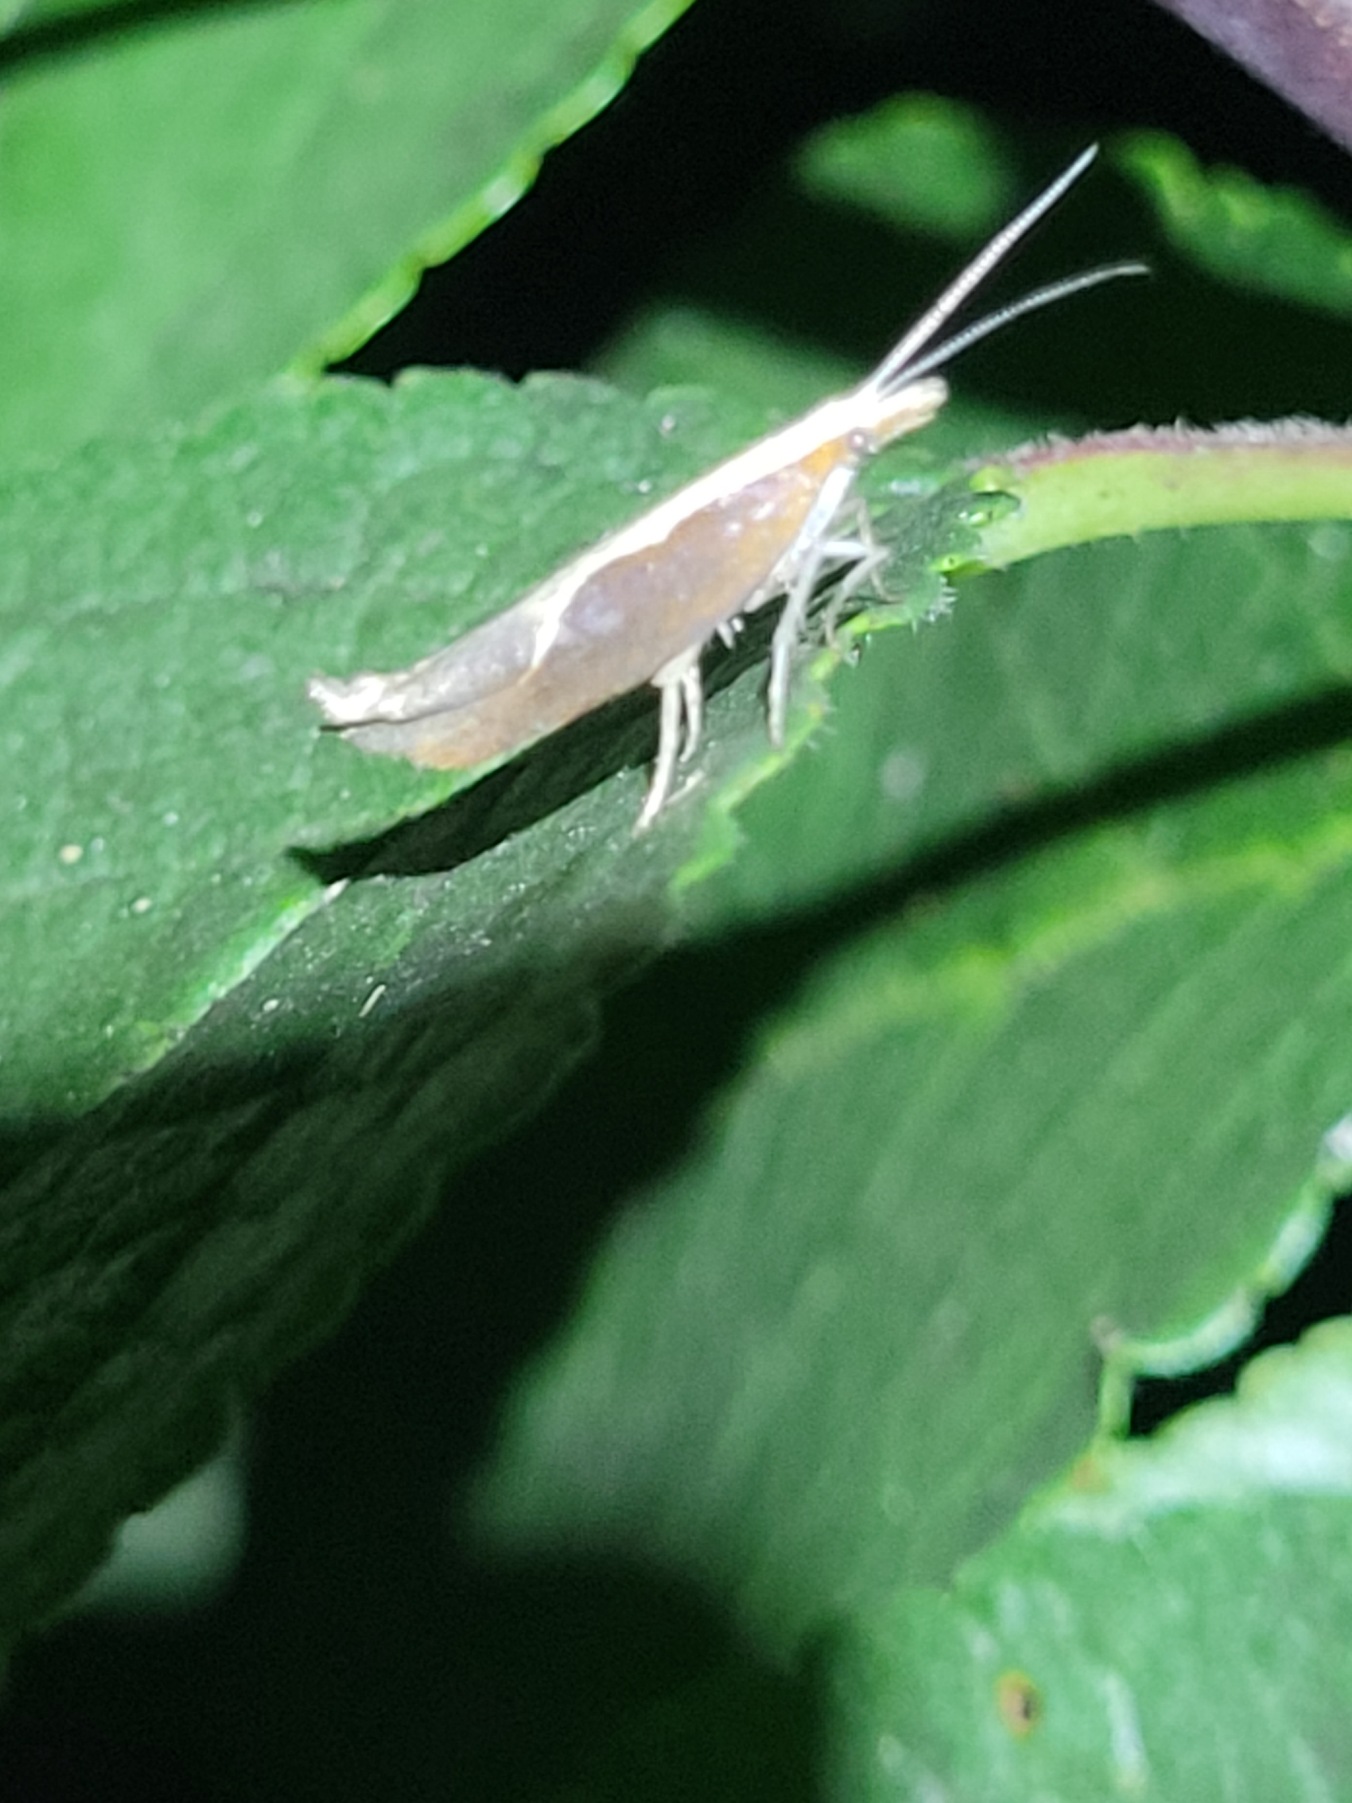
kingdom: Animalia
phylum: Arthropoda
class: Insecta
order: Lepidoptera
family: Ypsolophidae
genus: Ypsolopha
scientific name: Ypsolopha dentella
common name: Snudegedebladmøl
